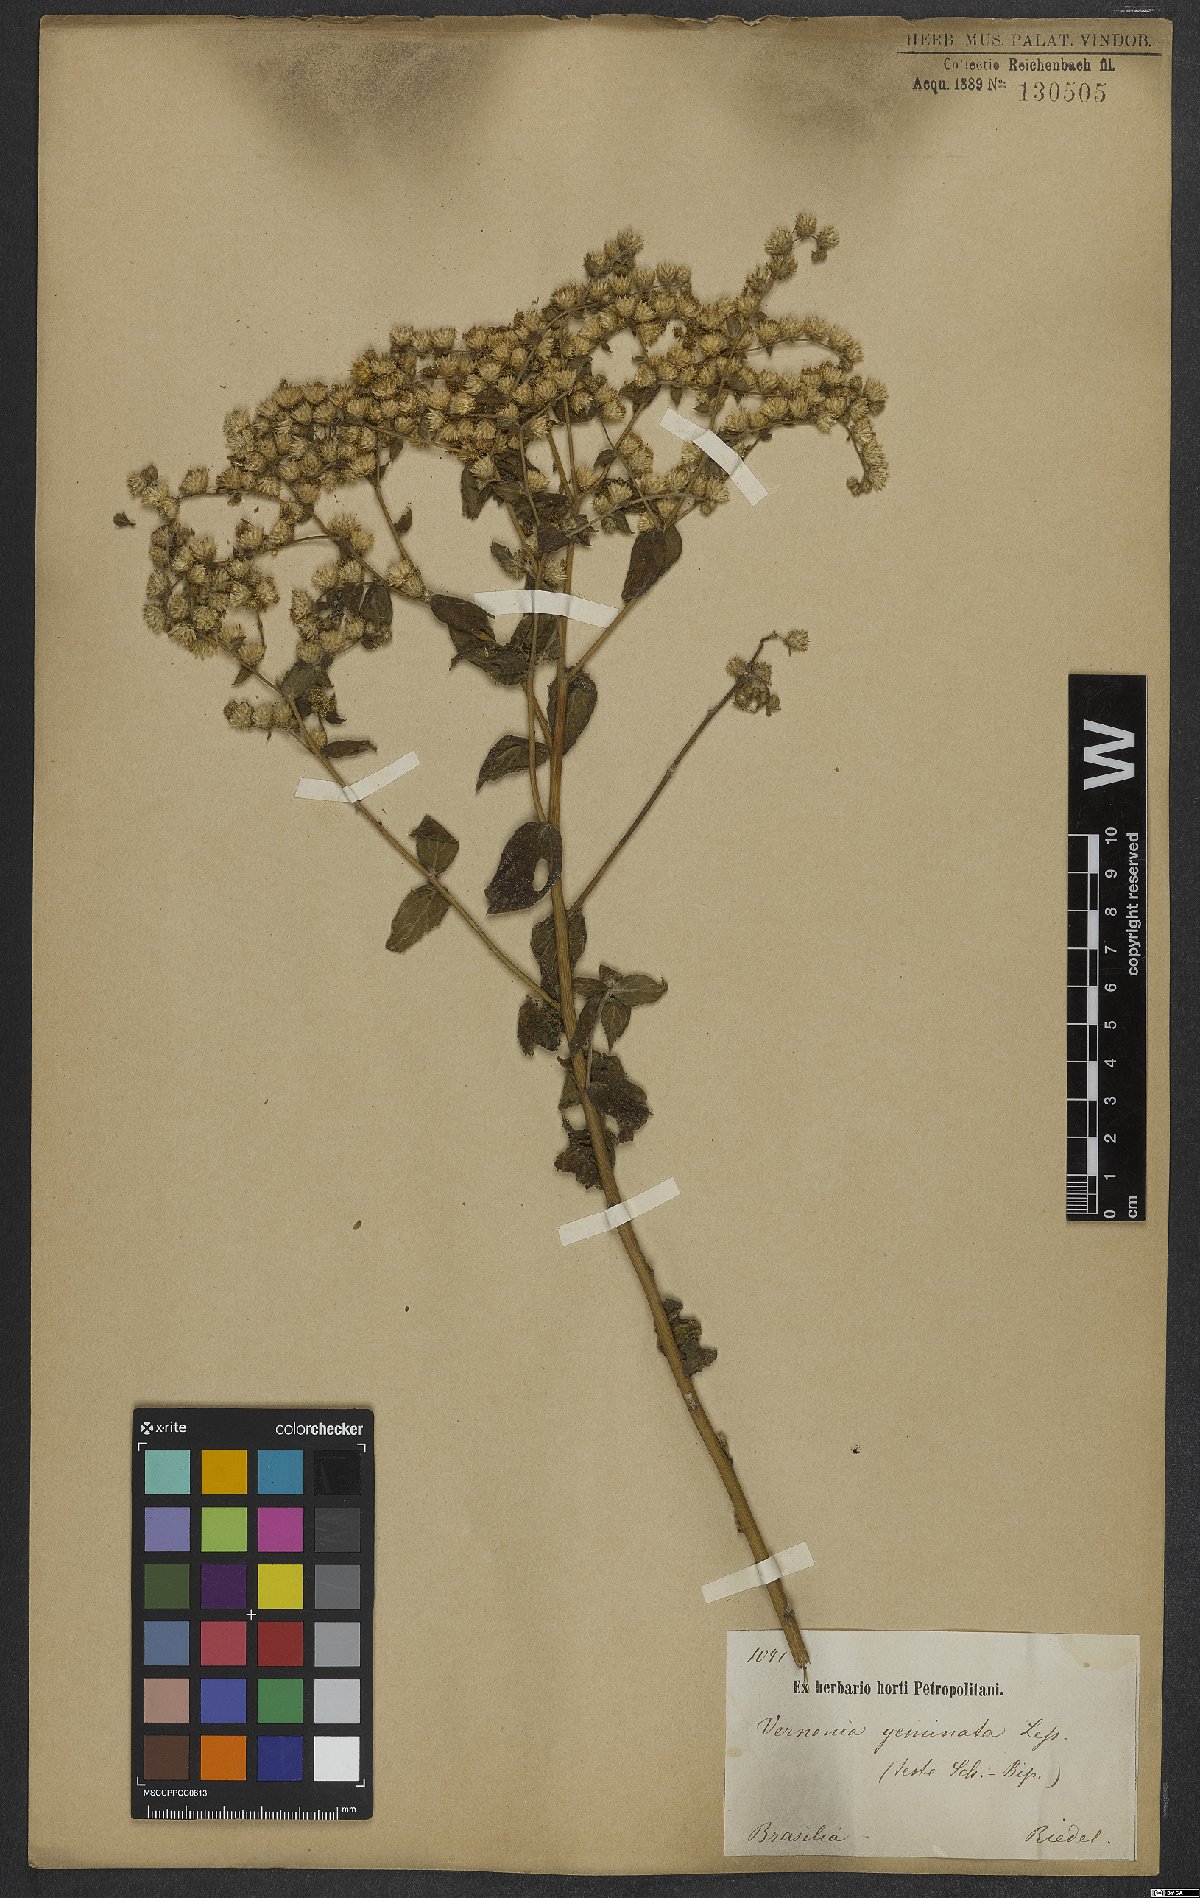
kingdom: Plantae
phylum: Tracheophyta
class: Magnoliopsida
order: Asterales
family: Asteraceae
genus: Lepidaploa
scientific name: Lepidaploa subsquarrosa
